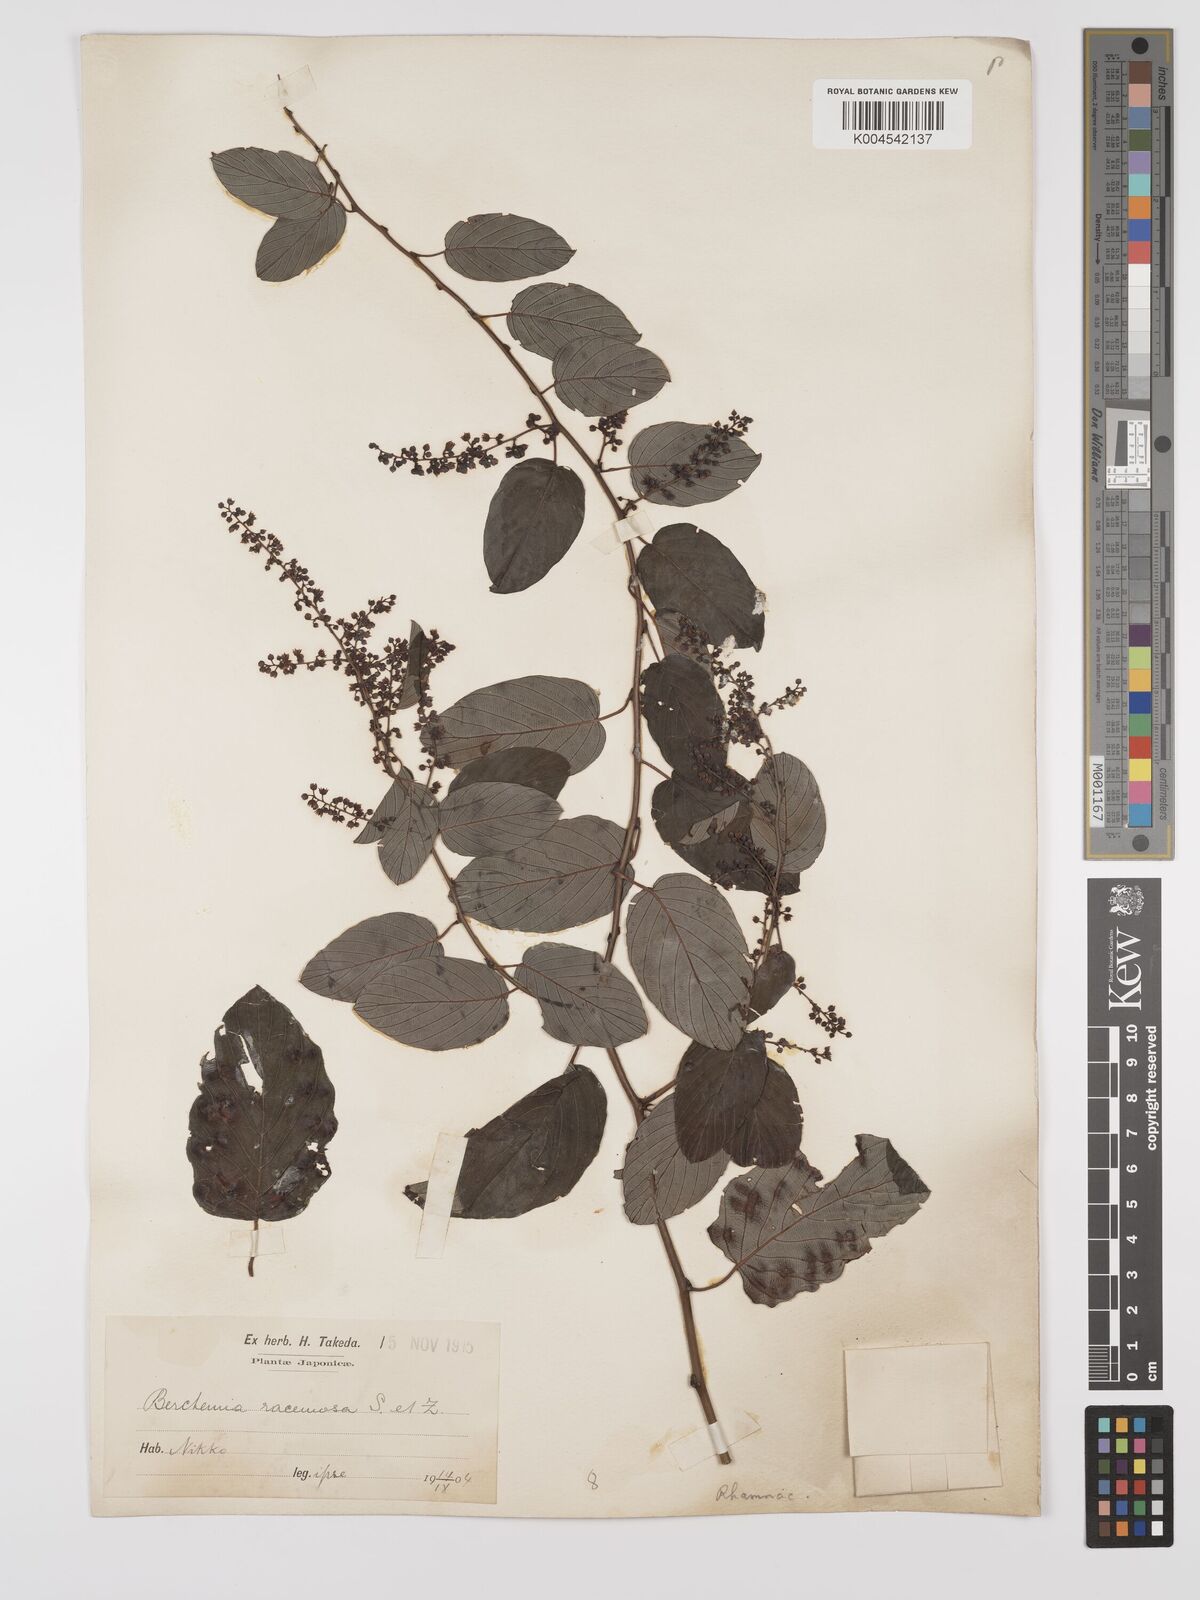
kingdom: Plantae
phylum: Tracheophyta
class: Magnoliopsida
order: Rosales
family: Rhamnaceae
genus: Berchemia
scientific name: Berchemia floribunda
